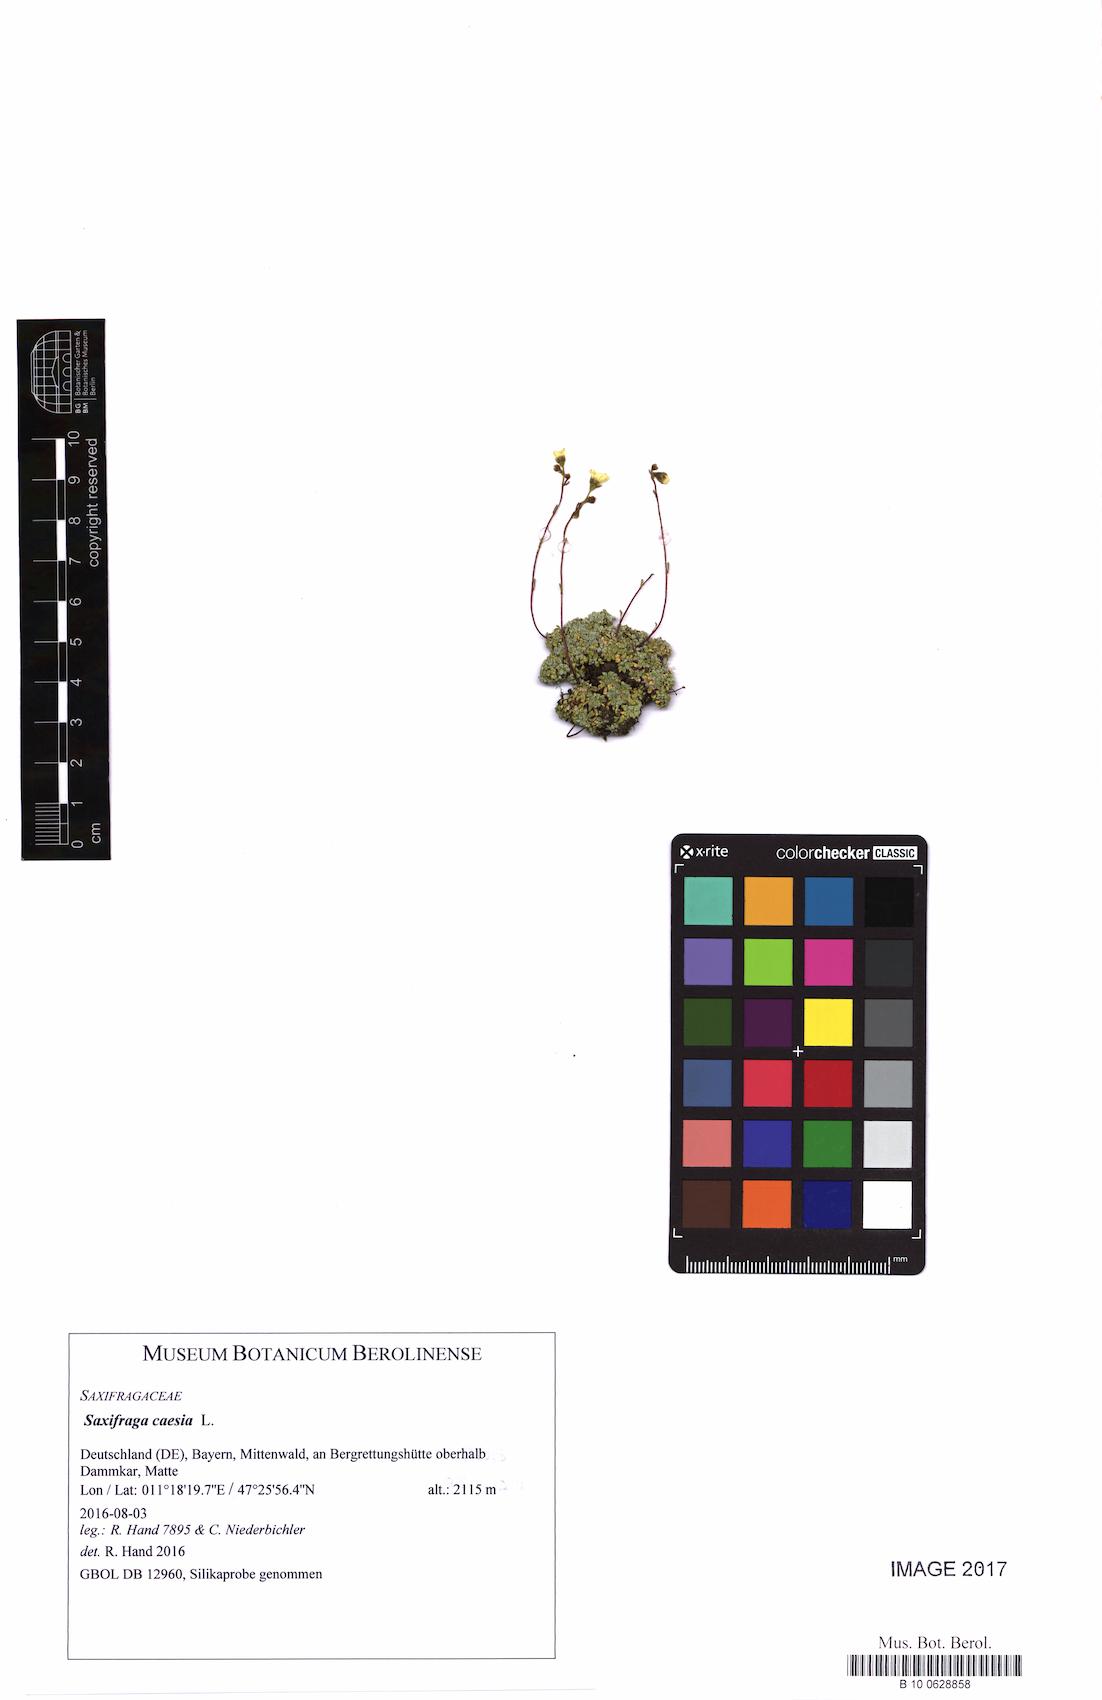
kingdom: Plantae
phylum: Tracheophyta
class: Magnoliopsida
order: Saxifragales
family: Saxifragaceae
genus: Saxifraga
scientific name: Saxifraga caesia
